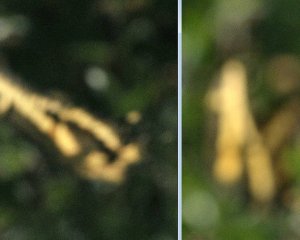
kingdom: Animalia
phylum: Arthropoda
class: Insecta
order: Lepidoptera
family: Papilionidae
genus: Papilio
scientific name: Papilio cresphontes
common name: Eastern Giant Swallowtail
